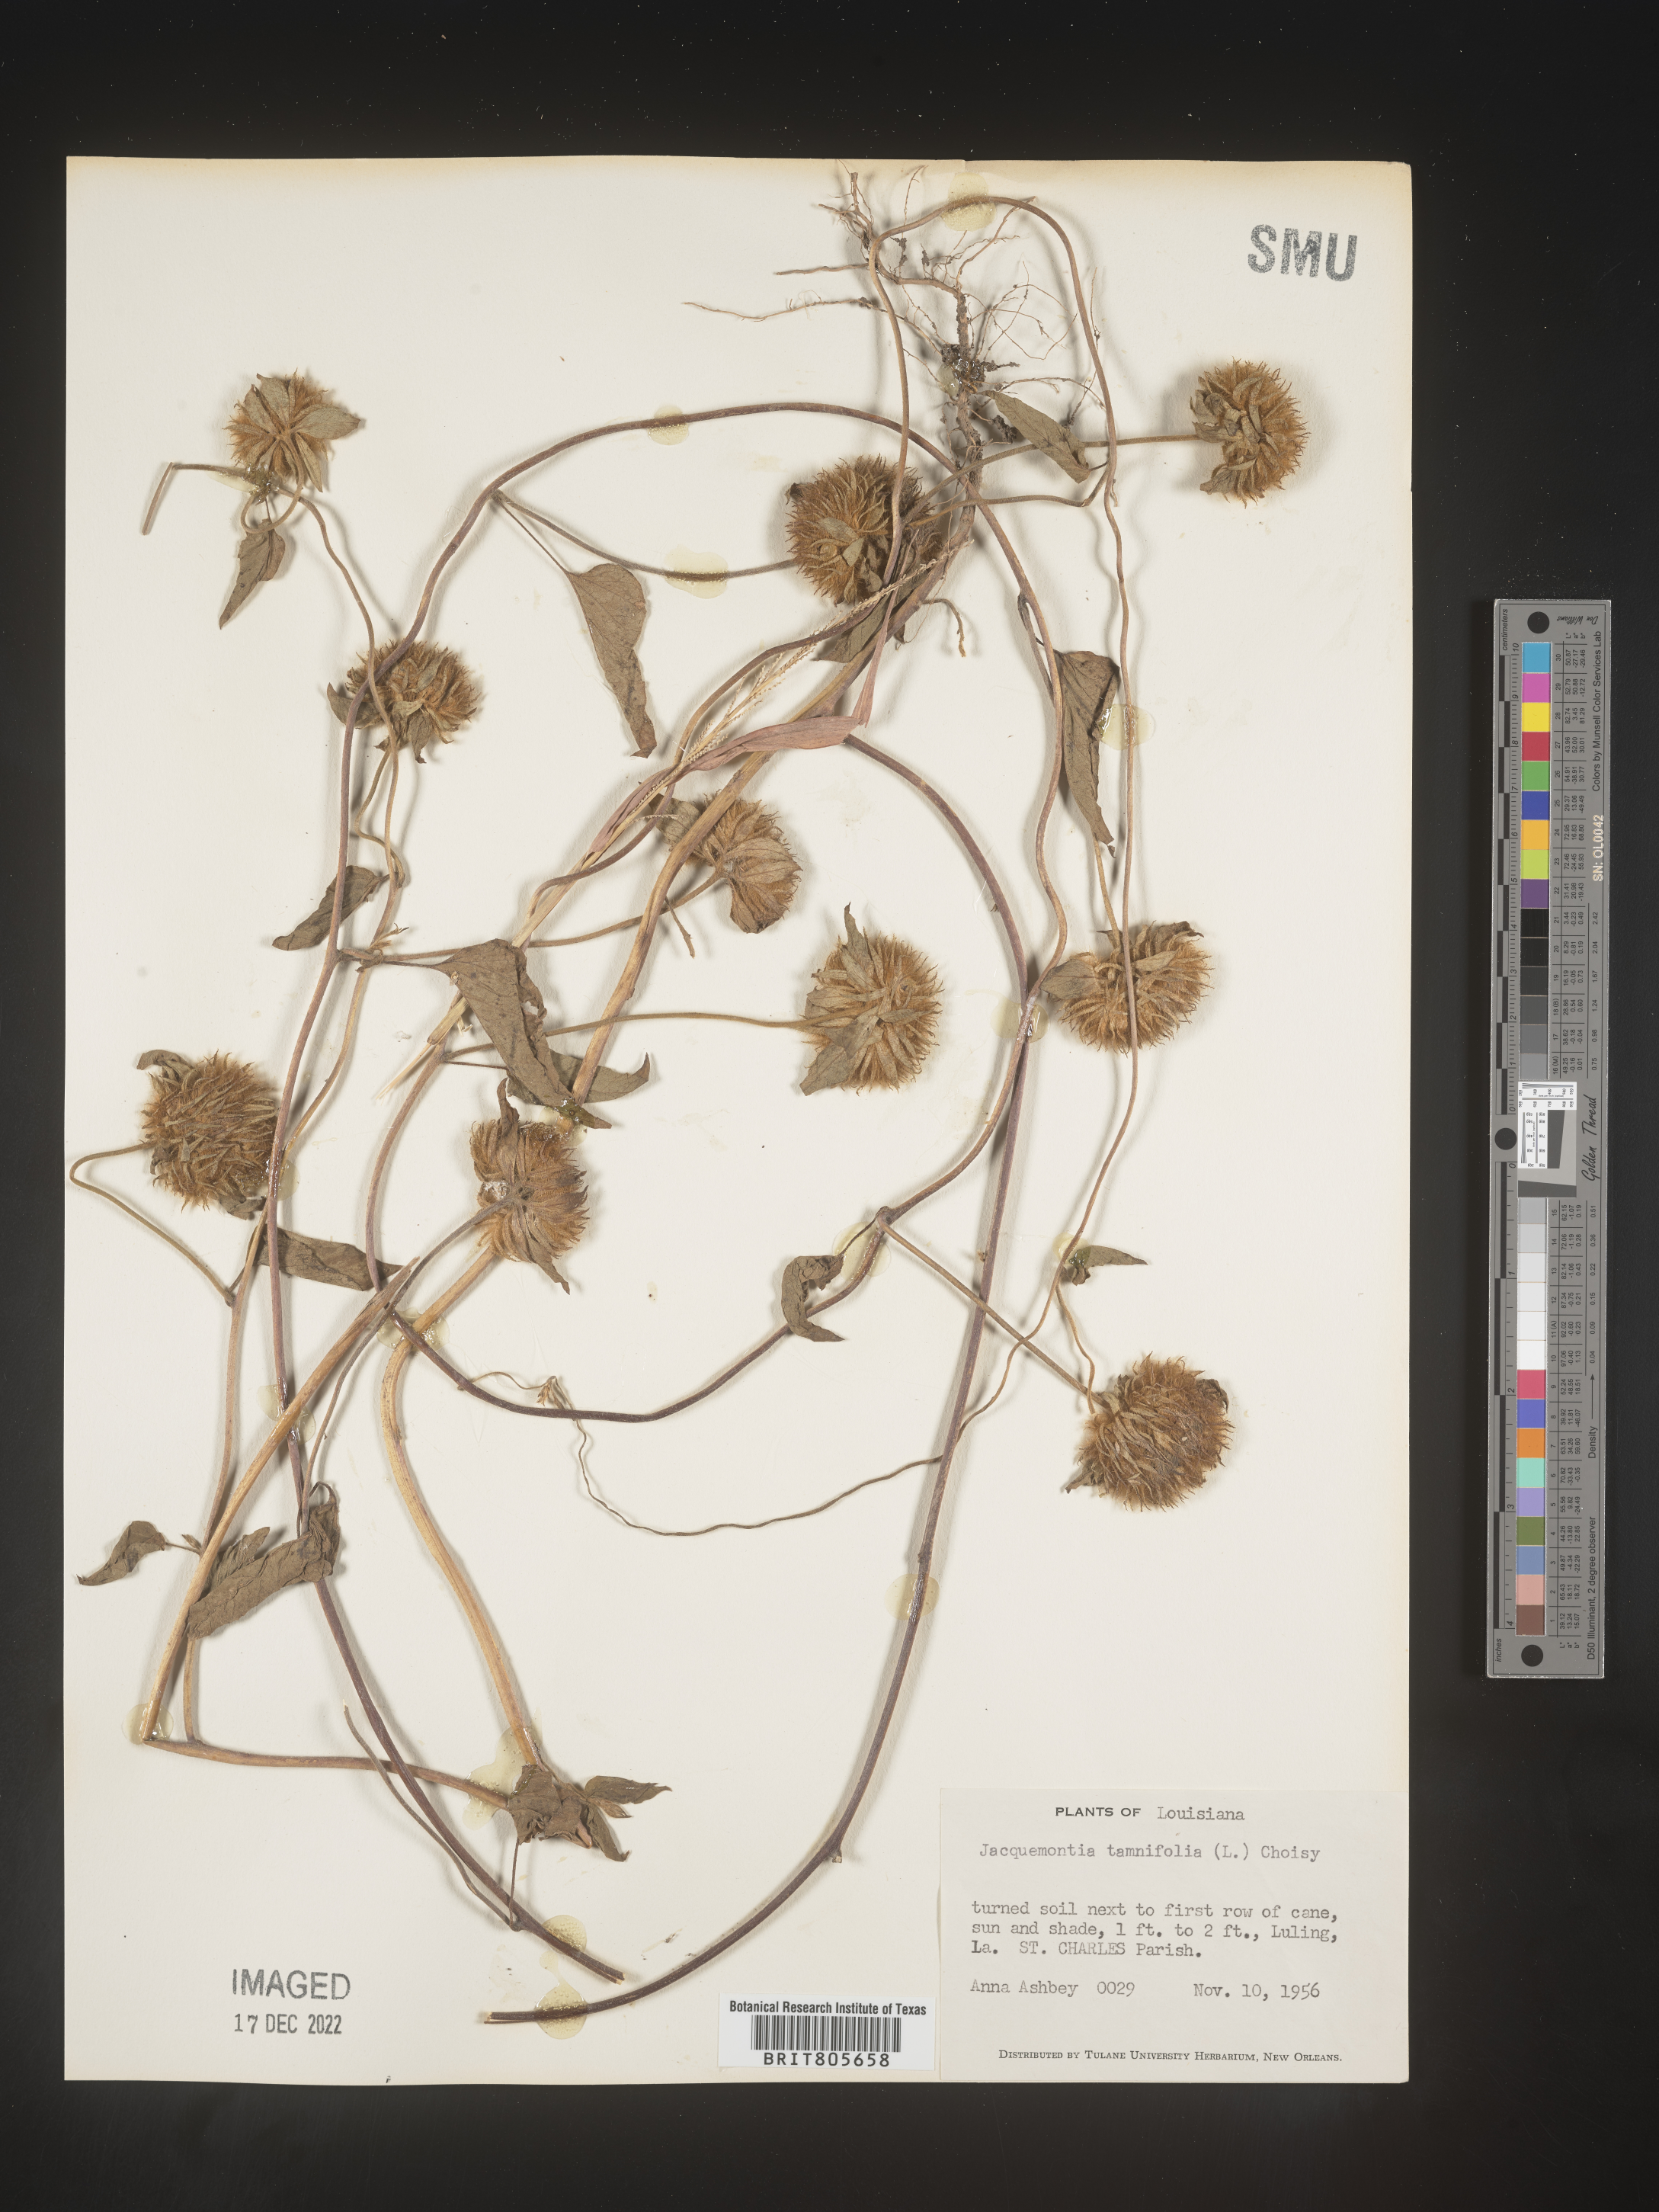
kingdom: Plantae
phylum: Tracheophyta
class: Magnoliopsida
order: Solanales
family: Convolvulaceae
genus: Jacquemontia
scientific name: Jacquemontia tamnifolia
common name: Hairy clustervine
